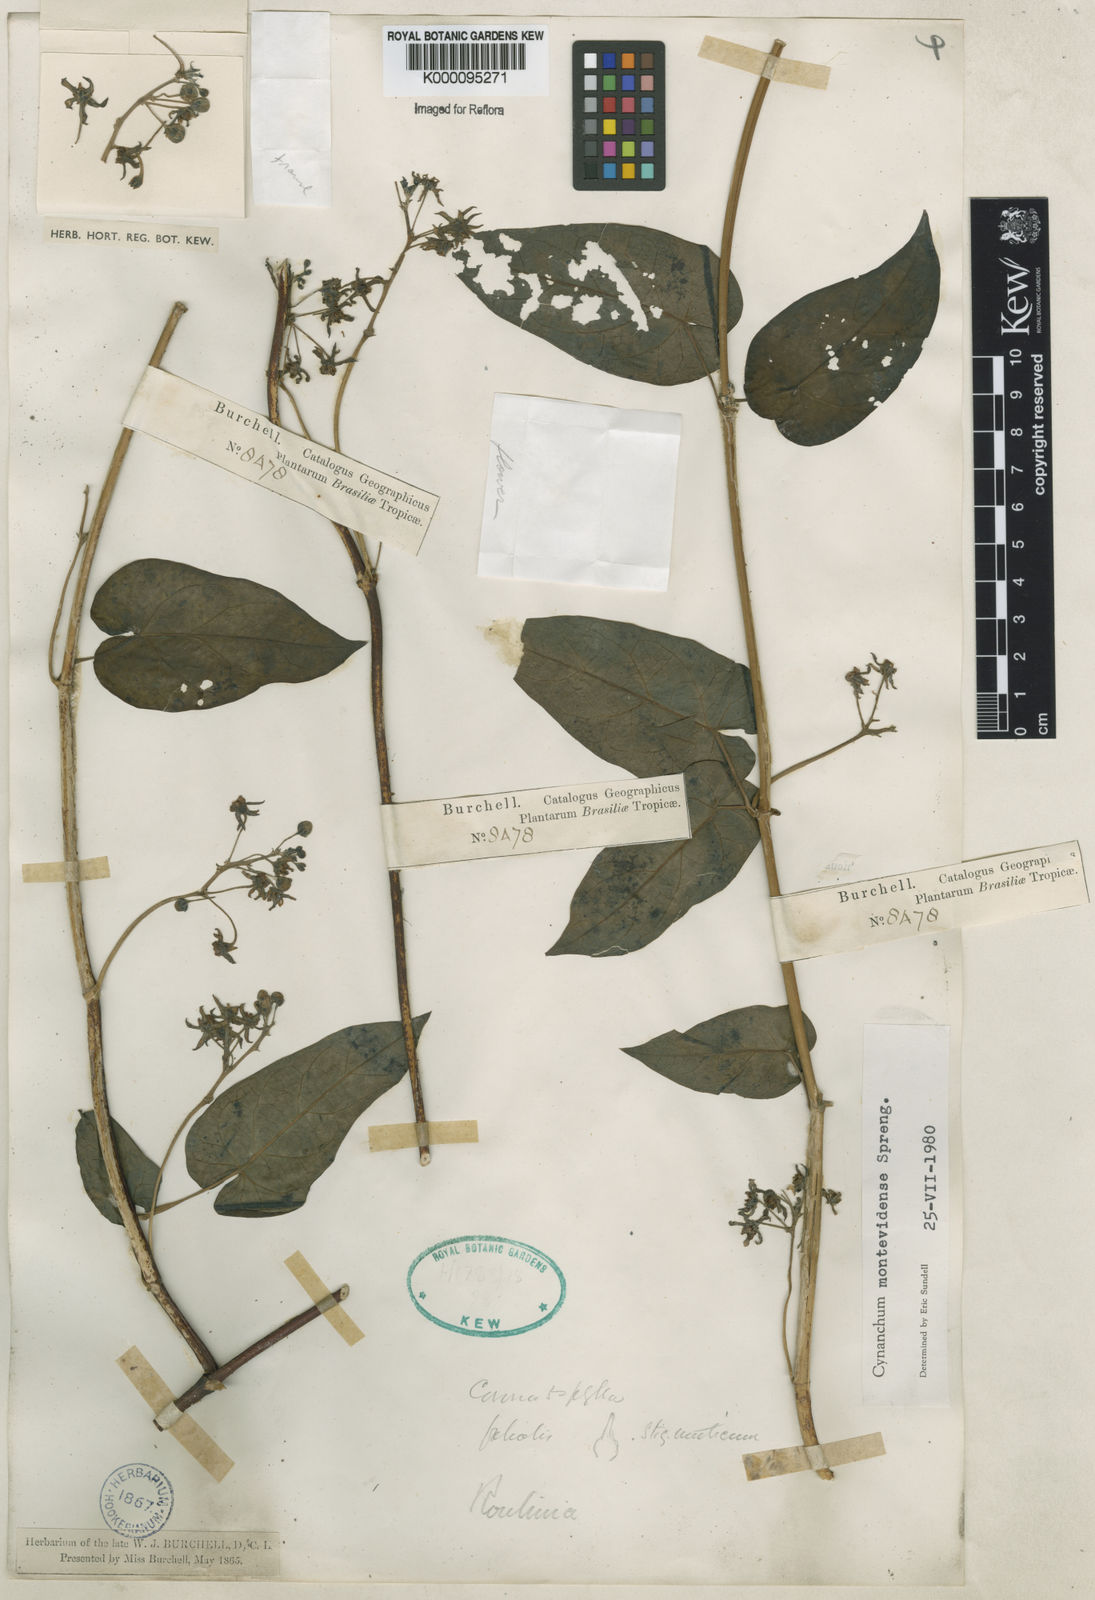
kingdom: Plantae
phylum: Tracheophyta
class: Magnoliopsida
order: Gentianales
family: Apocynaceae
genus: Cynanchum
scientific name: Cynanchum montevidense
